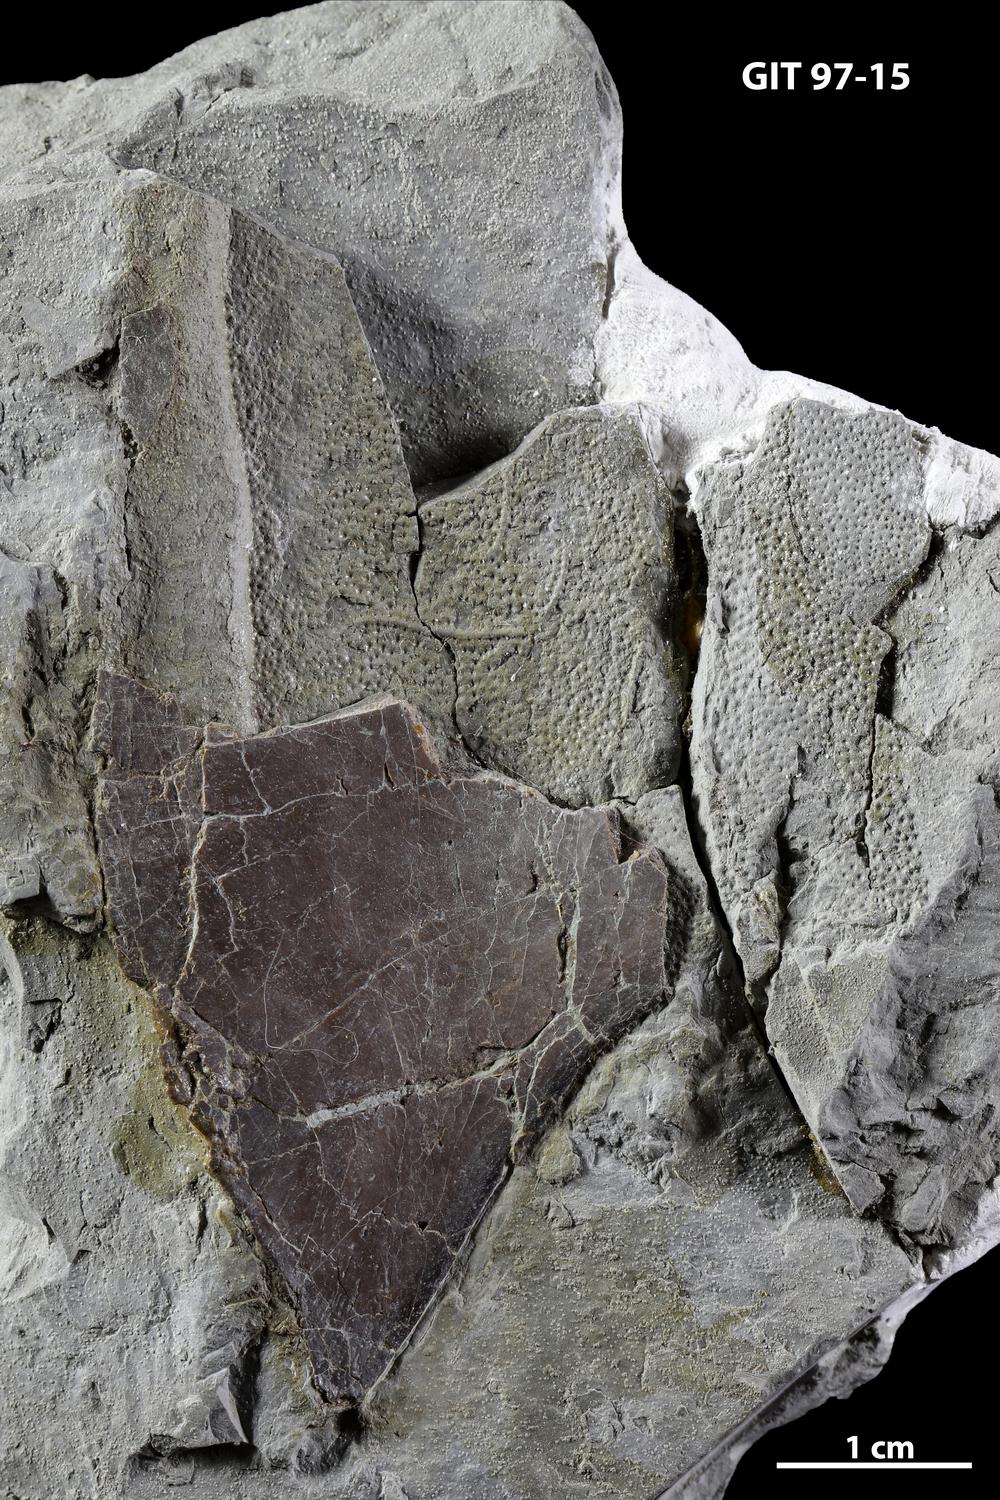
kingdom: Animalia
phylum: Chordata
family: Holonematidae
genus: Holonema
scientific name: Holonema
